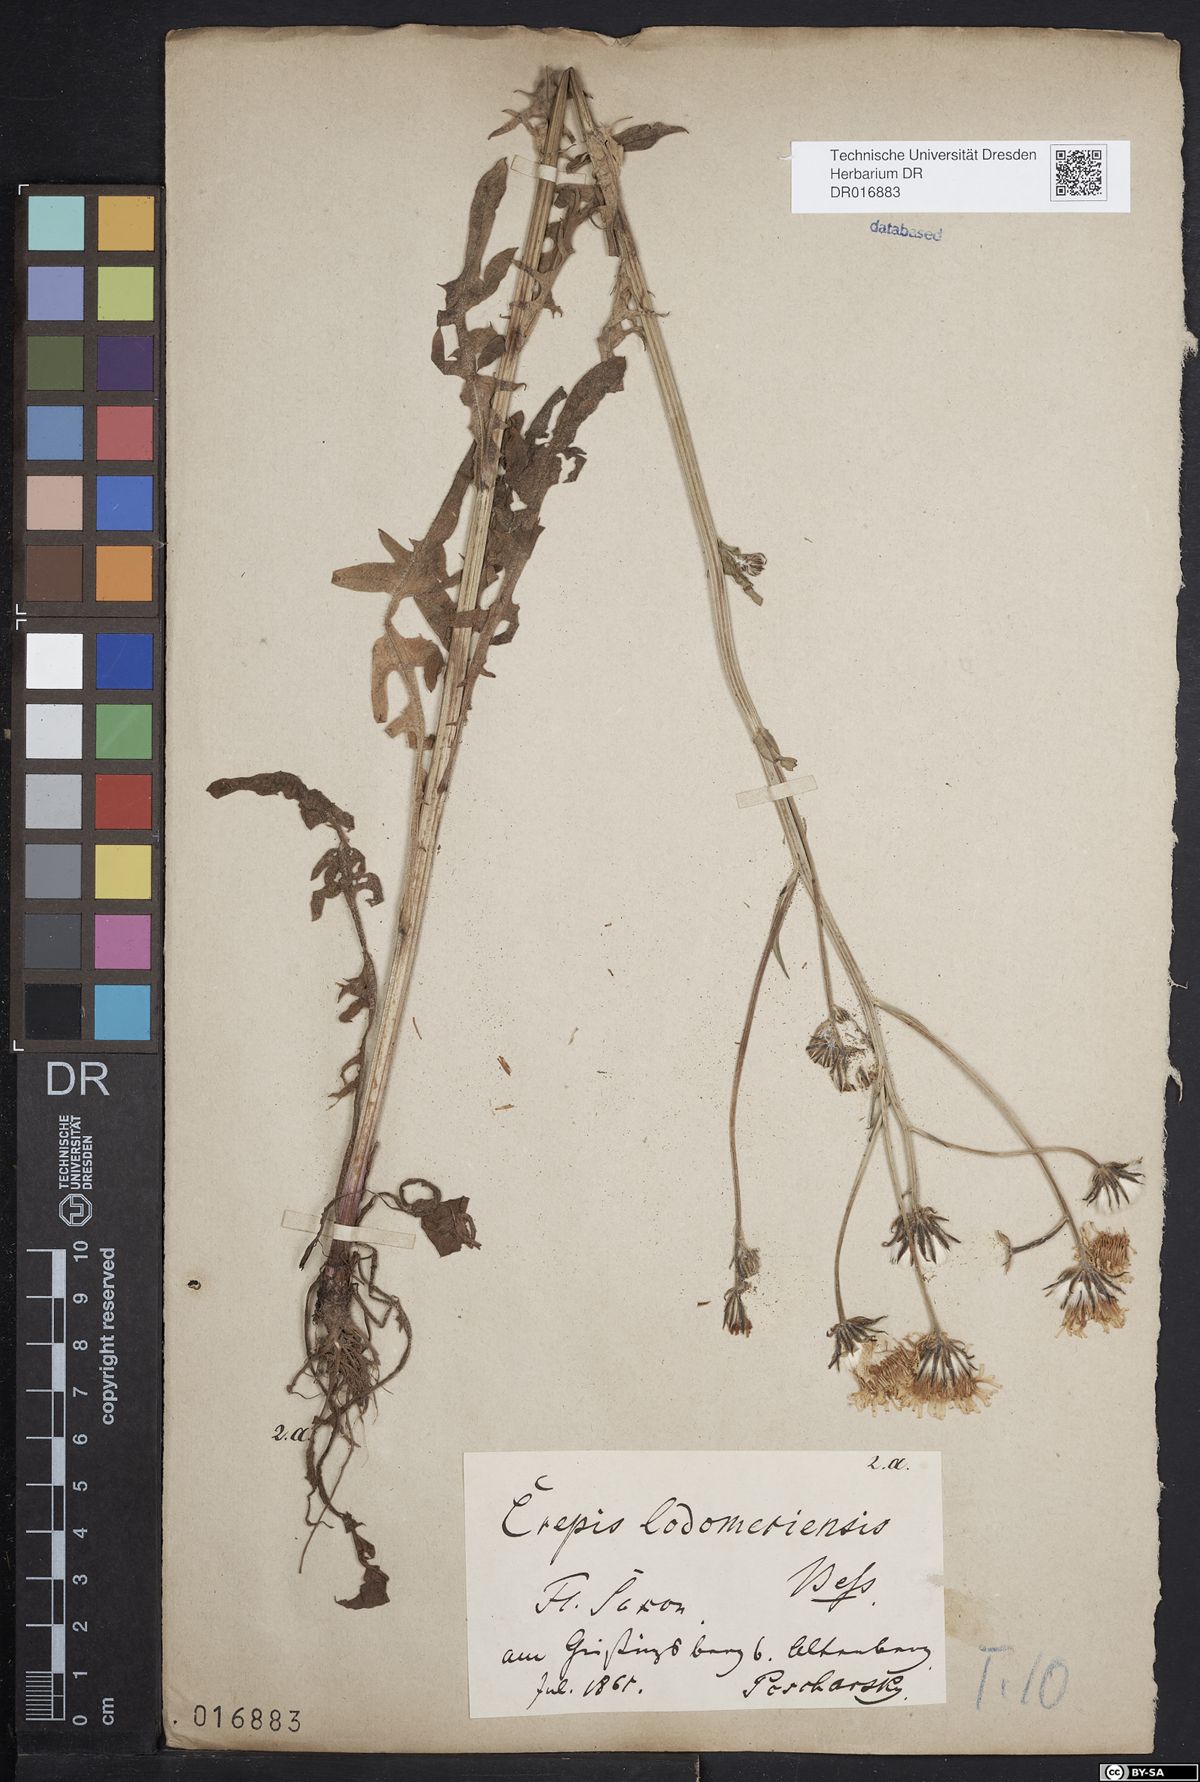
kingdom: Plantae
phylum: Tracheophyta
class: Magnoliopsida
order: Asterales
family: Asteraceae
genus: Crepis
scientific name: Crepis biennis
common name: Rough hawk's-beard
